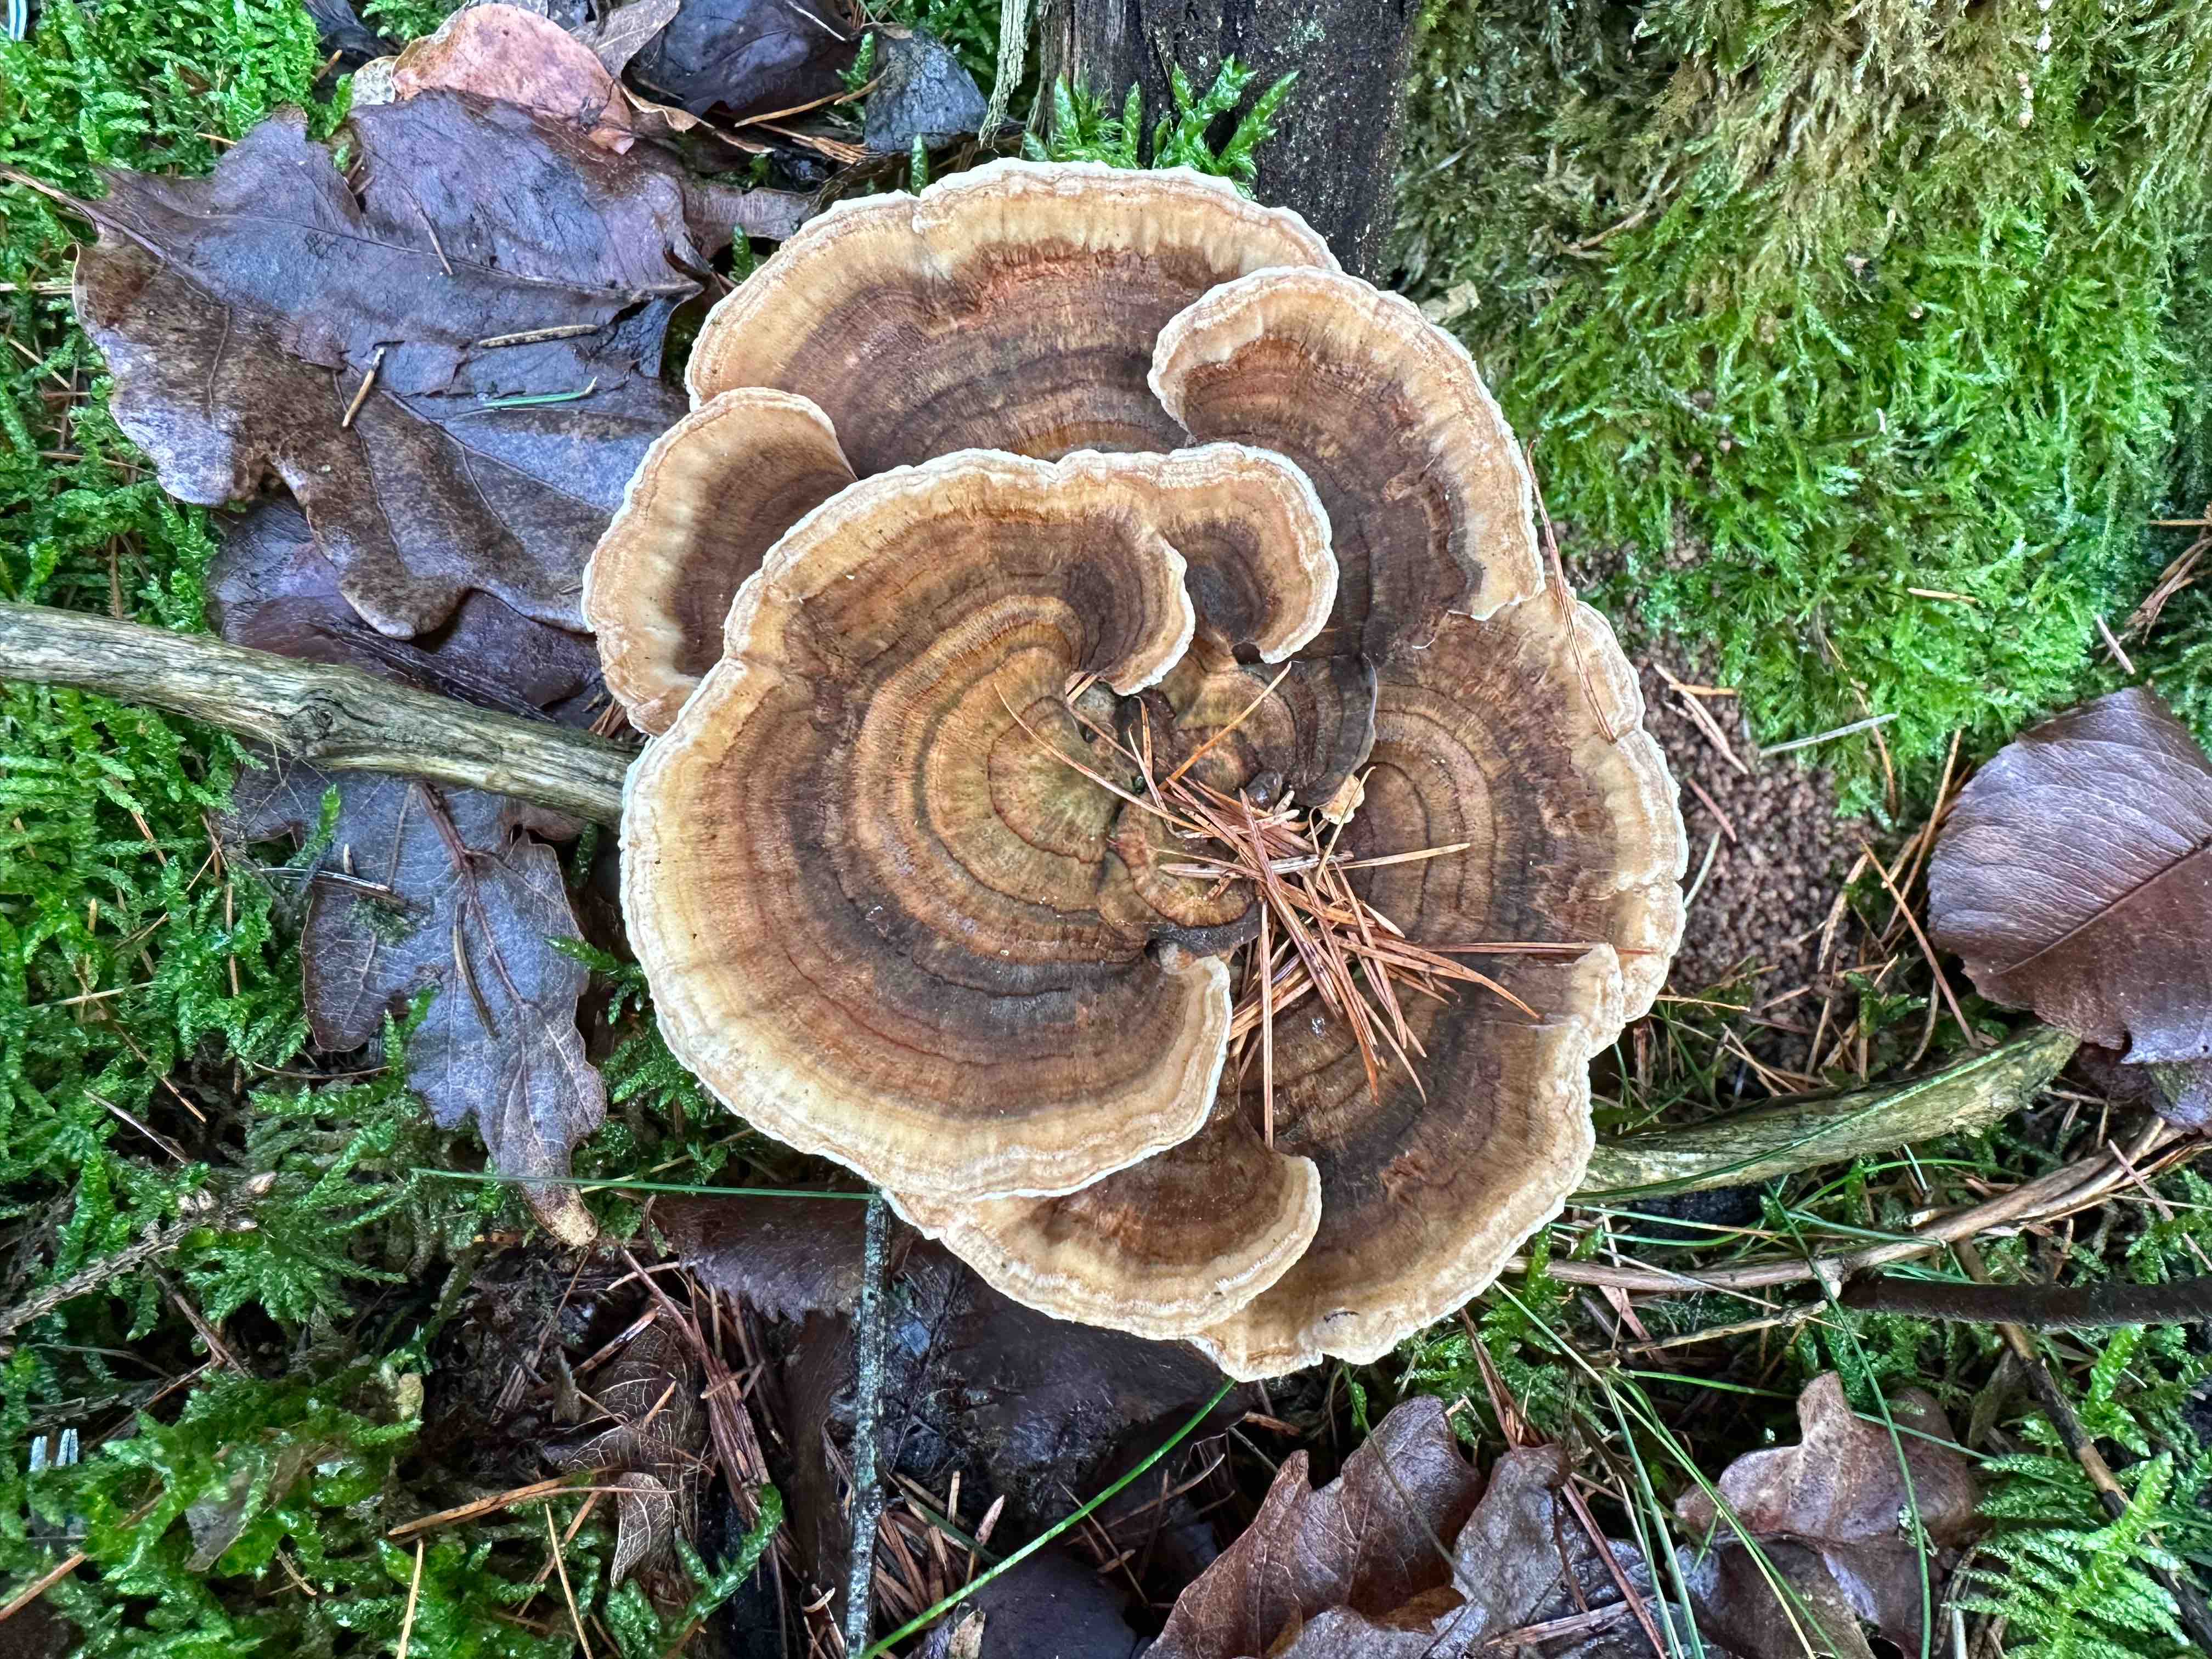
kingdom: Fungi
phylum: Basidiomycota
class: Agaricomycetes
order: Polyporales
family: Polyporaceae
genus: Trametes
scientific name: Trametes versicolor
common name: broget læderporesvamp
